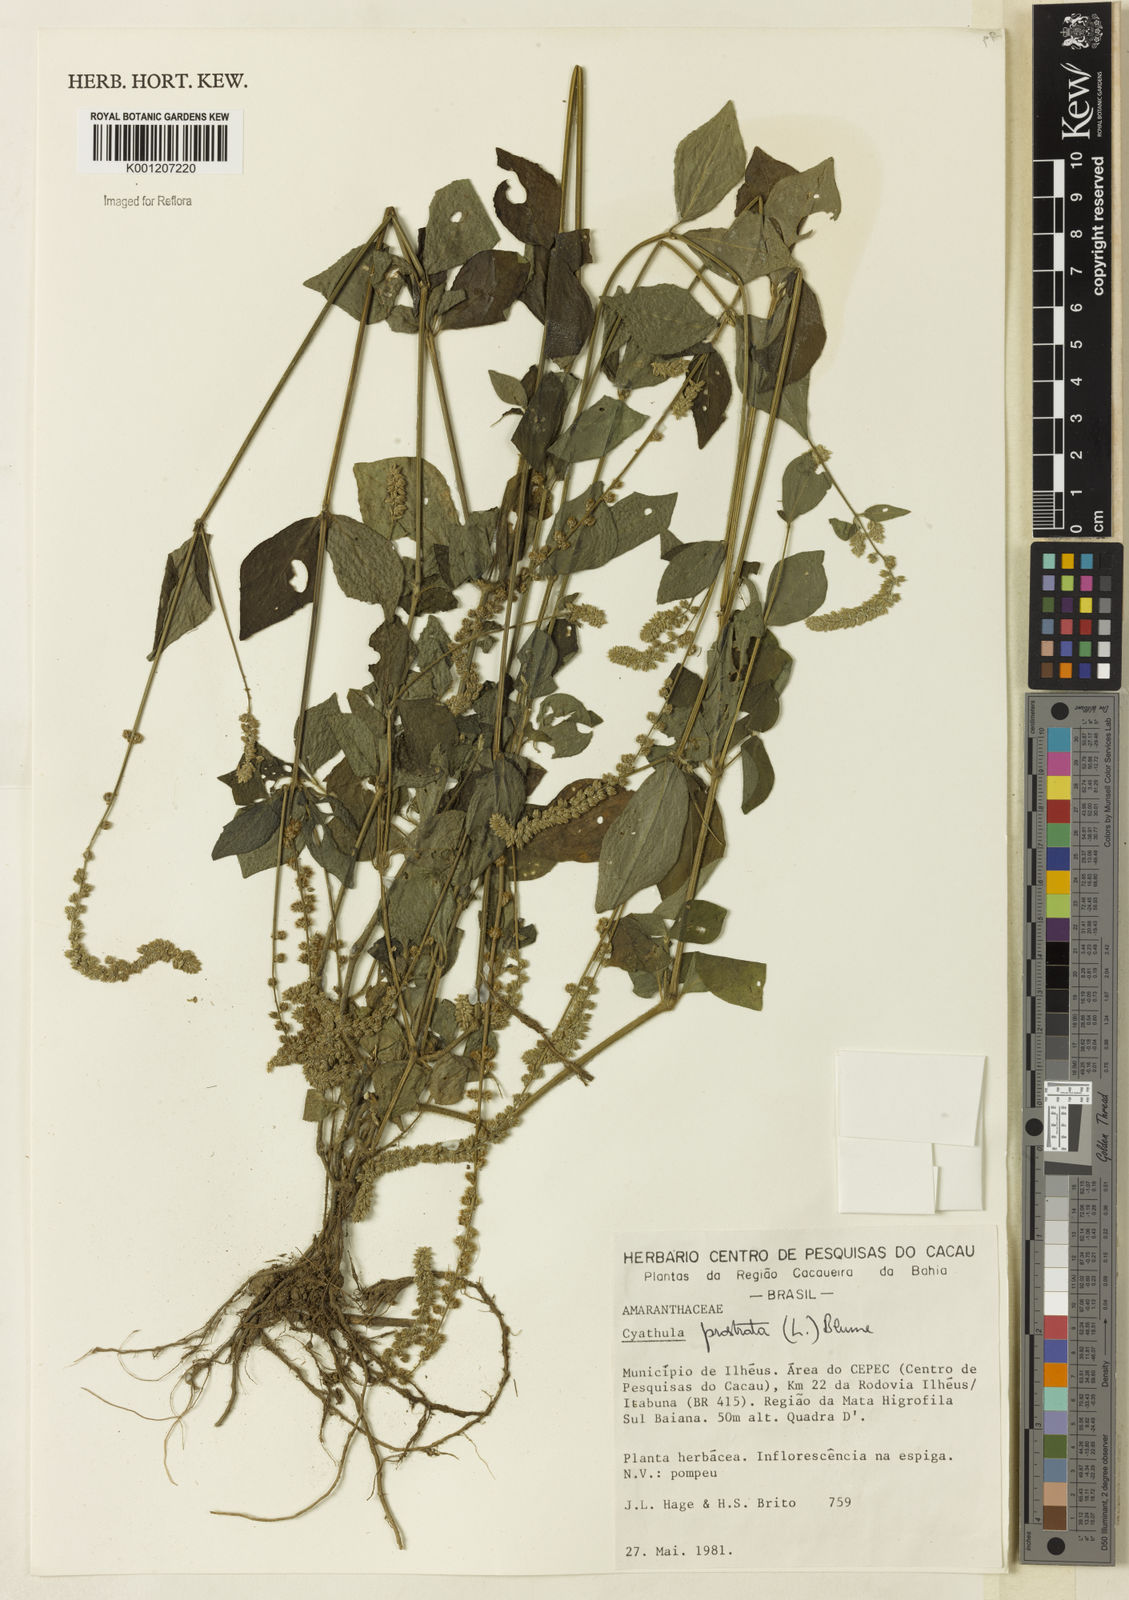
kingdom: Plantae
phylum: Tracheophyta
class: Magnoliopsida
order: Caryophyllales
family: Amaranthaceae
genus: Cyathula
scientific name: Cyathula prostrata
